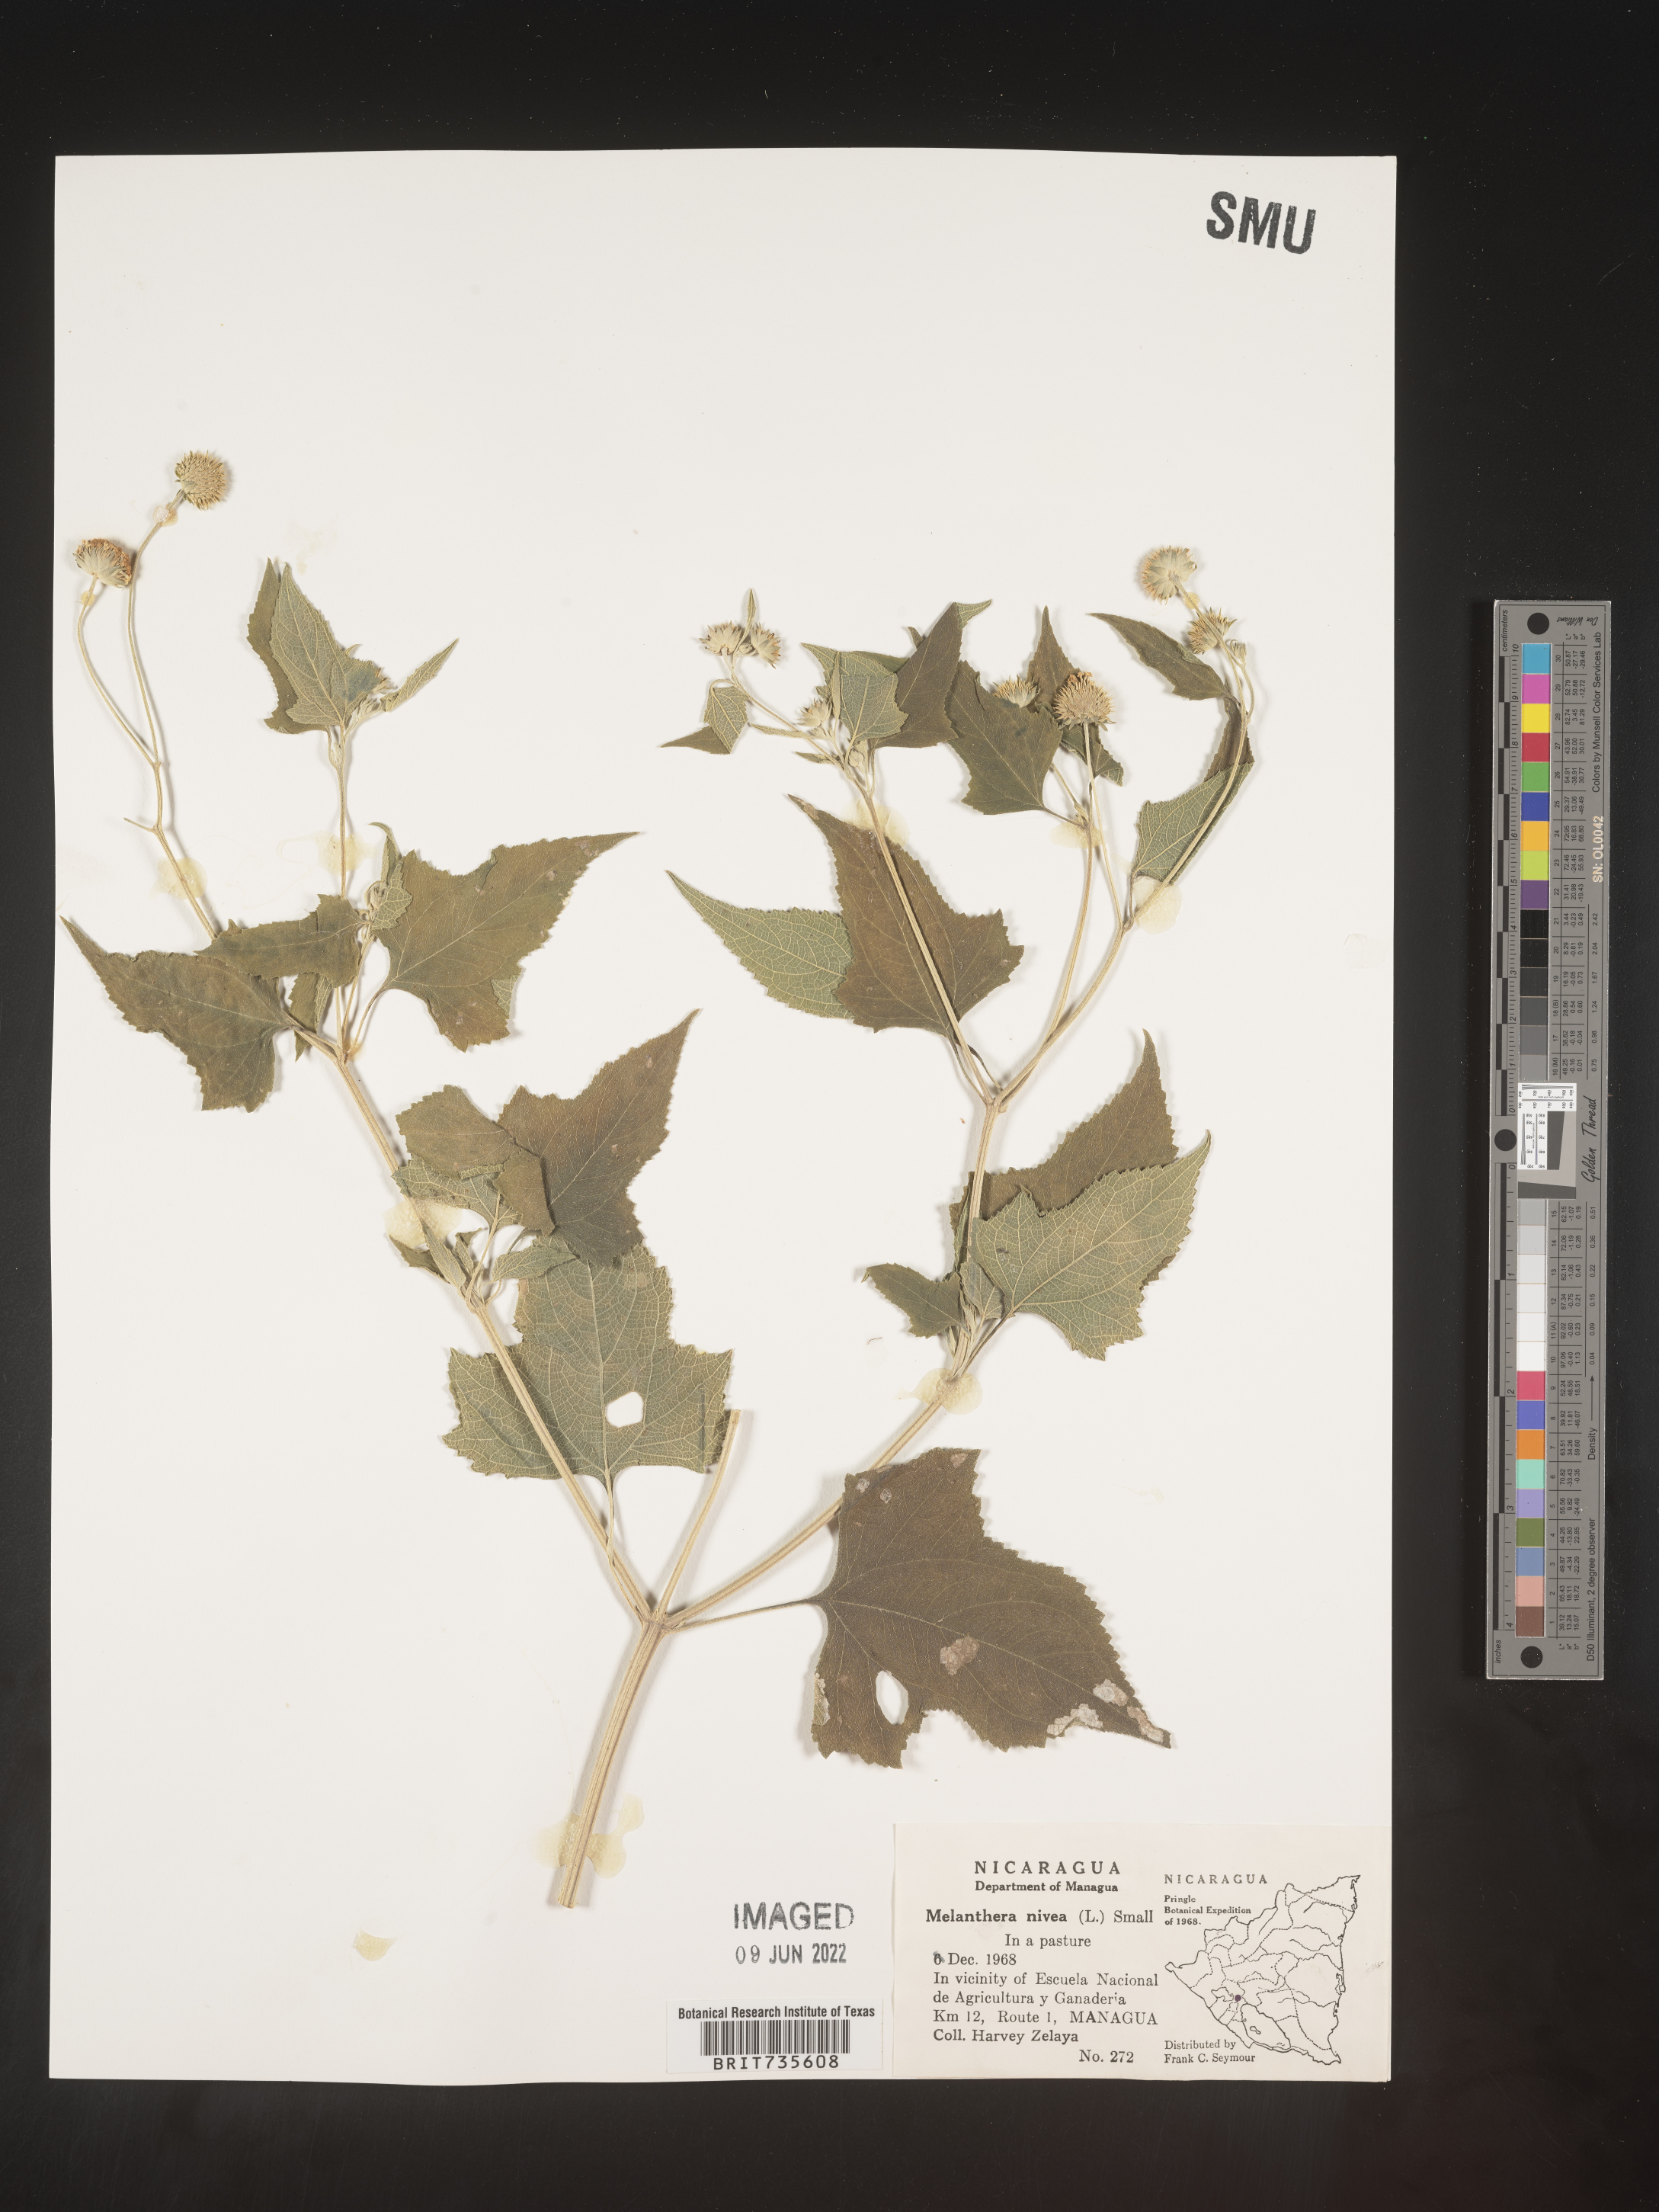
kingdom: Plantae
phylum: Tracheophyta
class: Magnoliopsida
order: Asterales
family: Asteraceae
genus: Melanthera
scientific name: Melanthera
